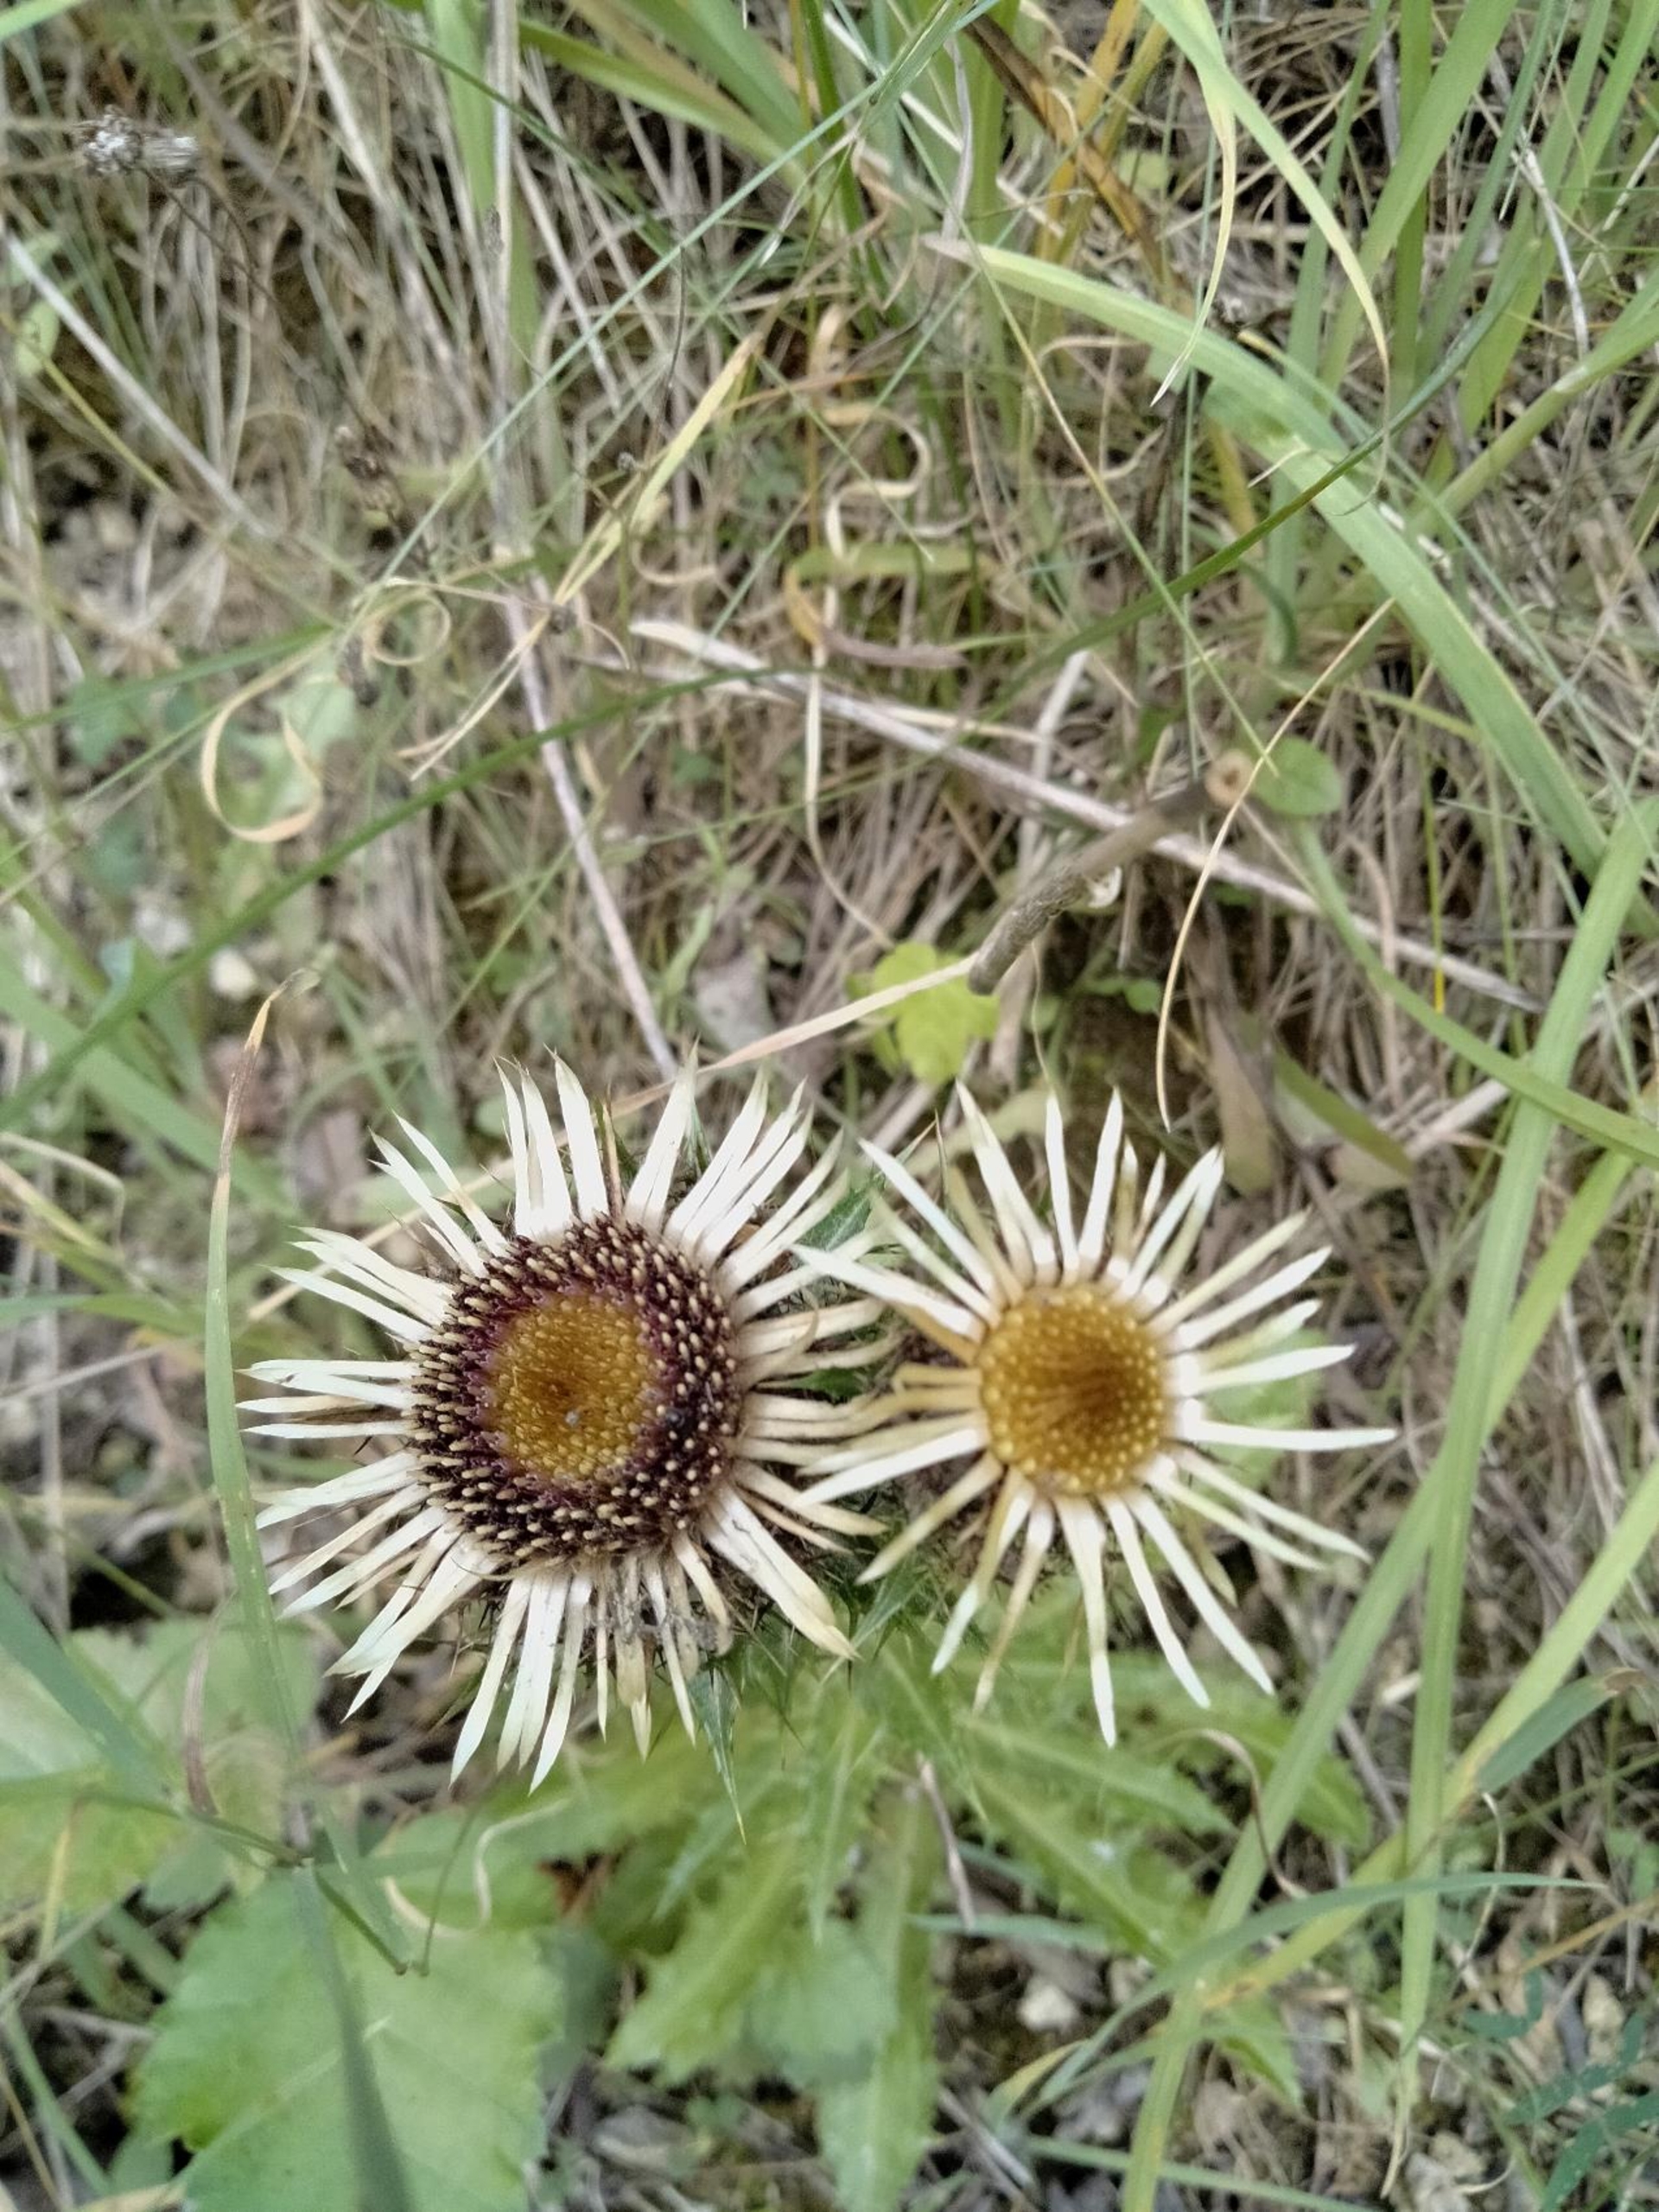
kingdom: Plantae
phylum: Tracheophyta
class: Magnoliopsida
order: Asterales
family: Asteraceae
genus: Carlina
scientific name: Carlina vulgaris
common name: Bakketidsel
